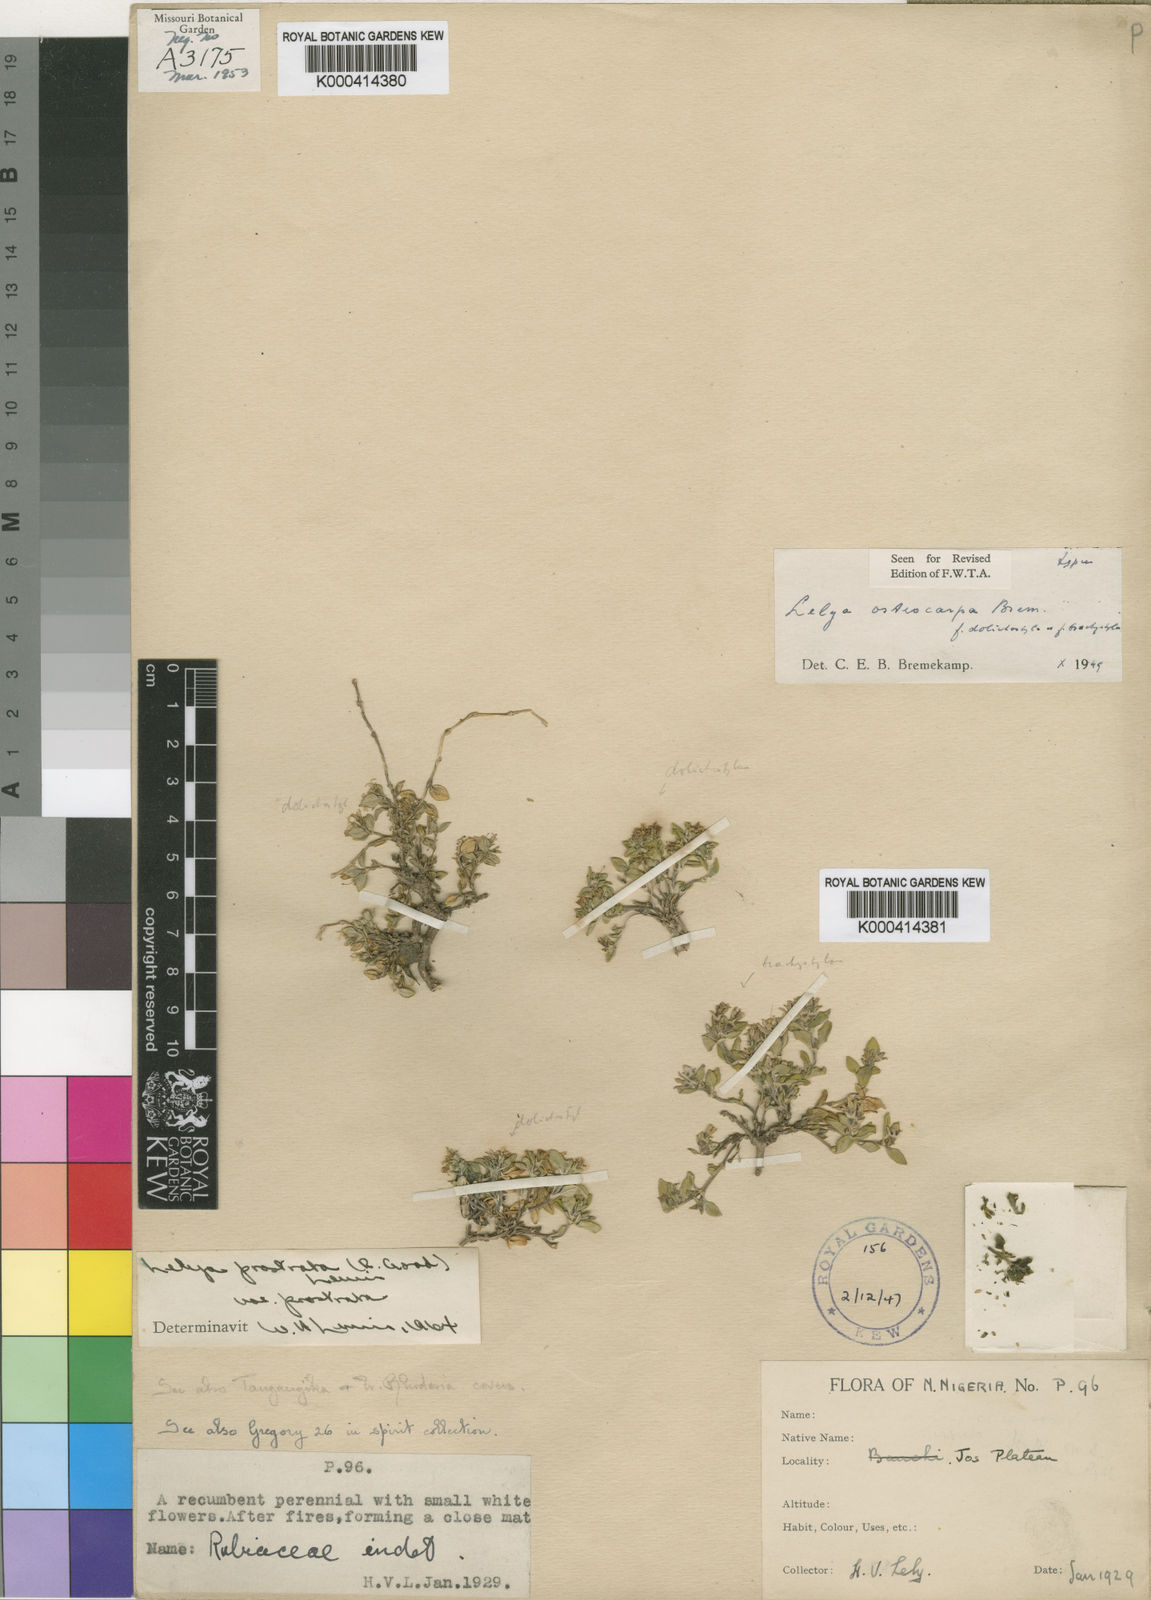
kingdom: Plantae
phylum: Tracheophyta
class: Magnoliopsida
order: Gentianales
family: Rubiaceae
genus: Lelya
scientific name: Lelya osteocarpa
